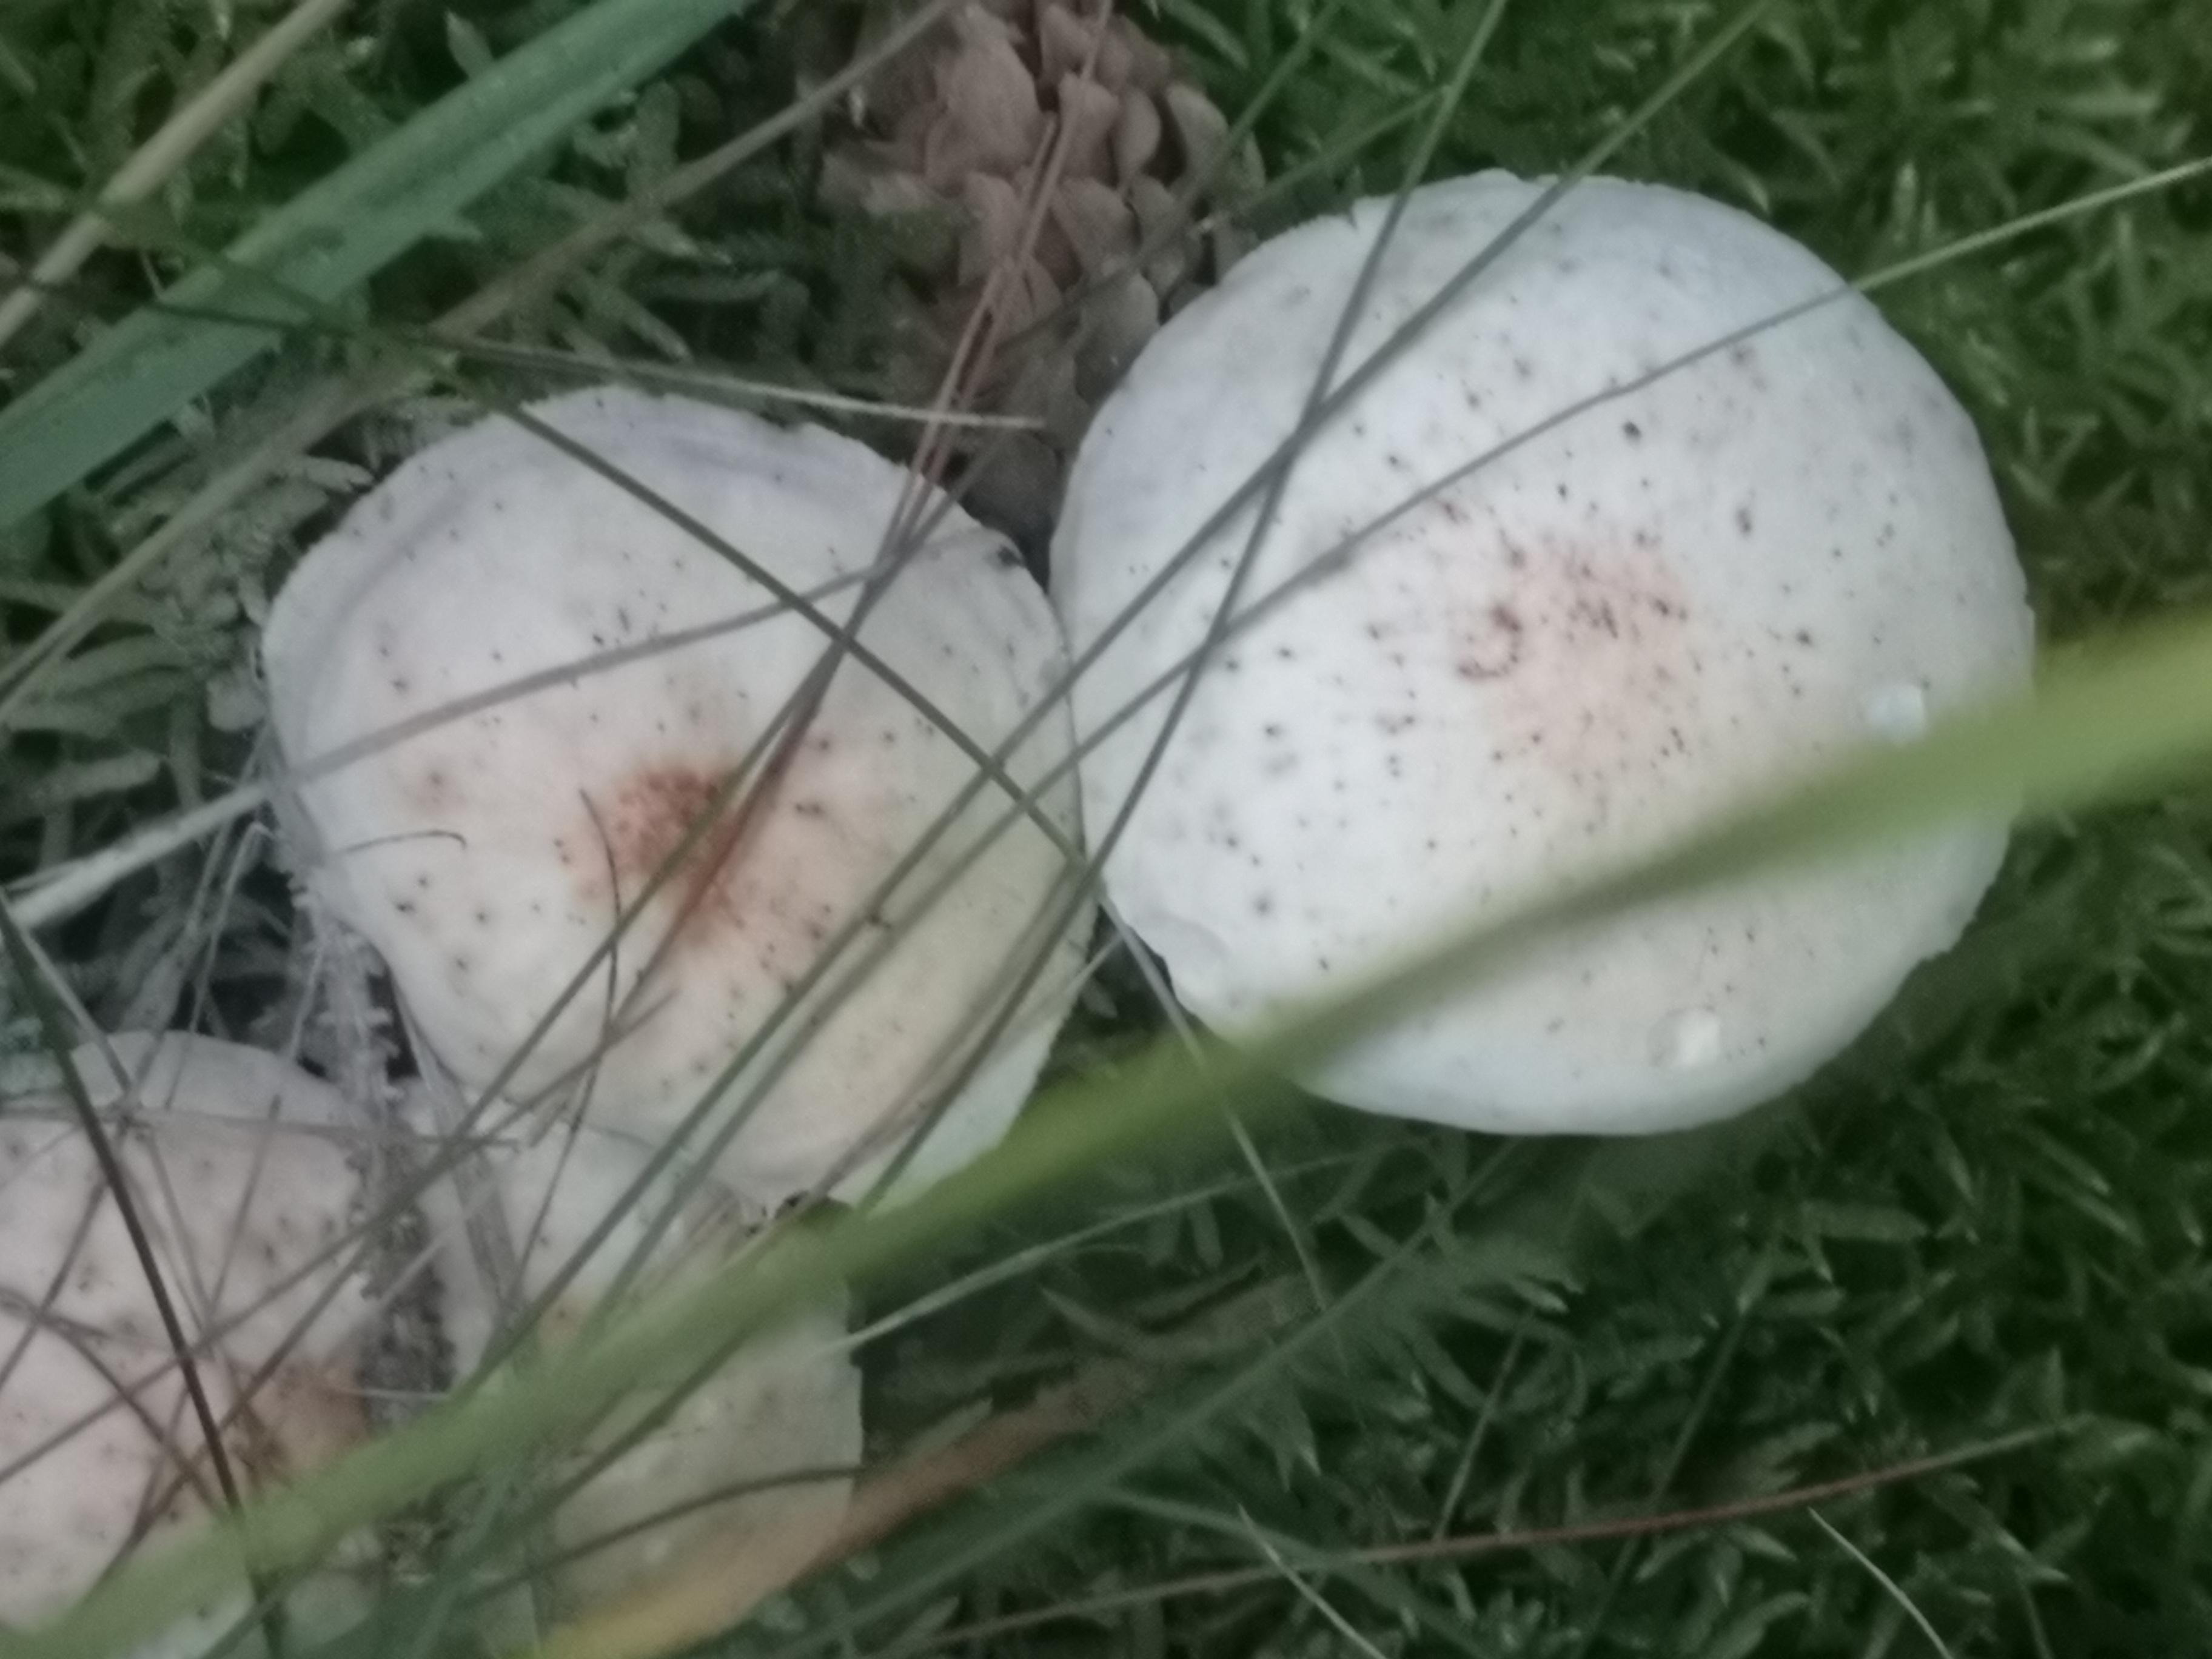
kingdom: Fungi
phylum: Basidiomycota
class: Agaricomycetes
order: Agaricales
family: Omphalotaceae
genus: Rhodocollybia
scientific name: Rhodocollybia maculata
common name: plettet fladhat
